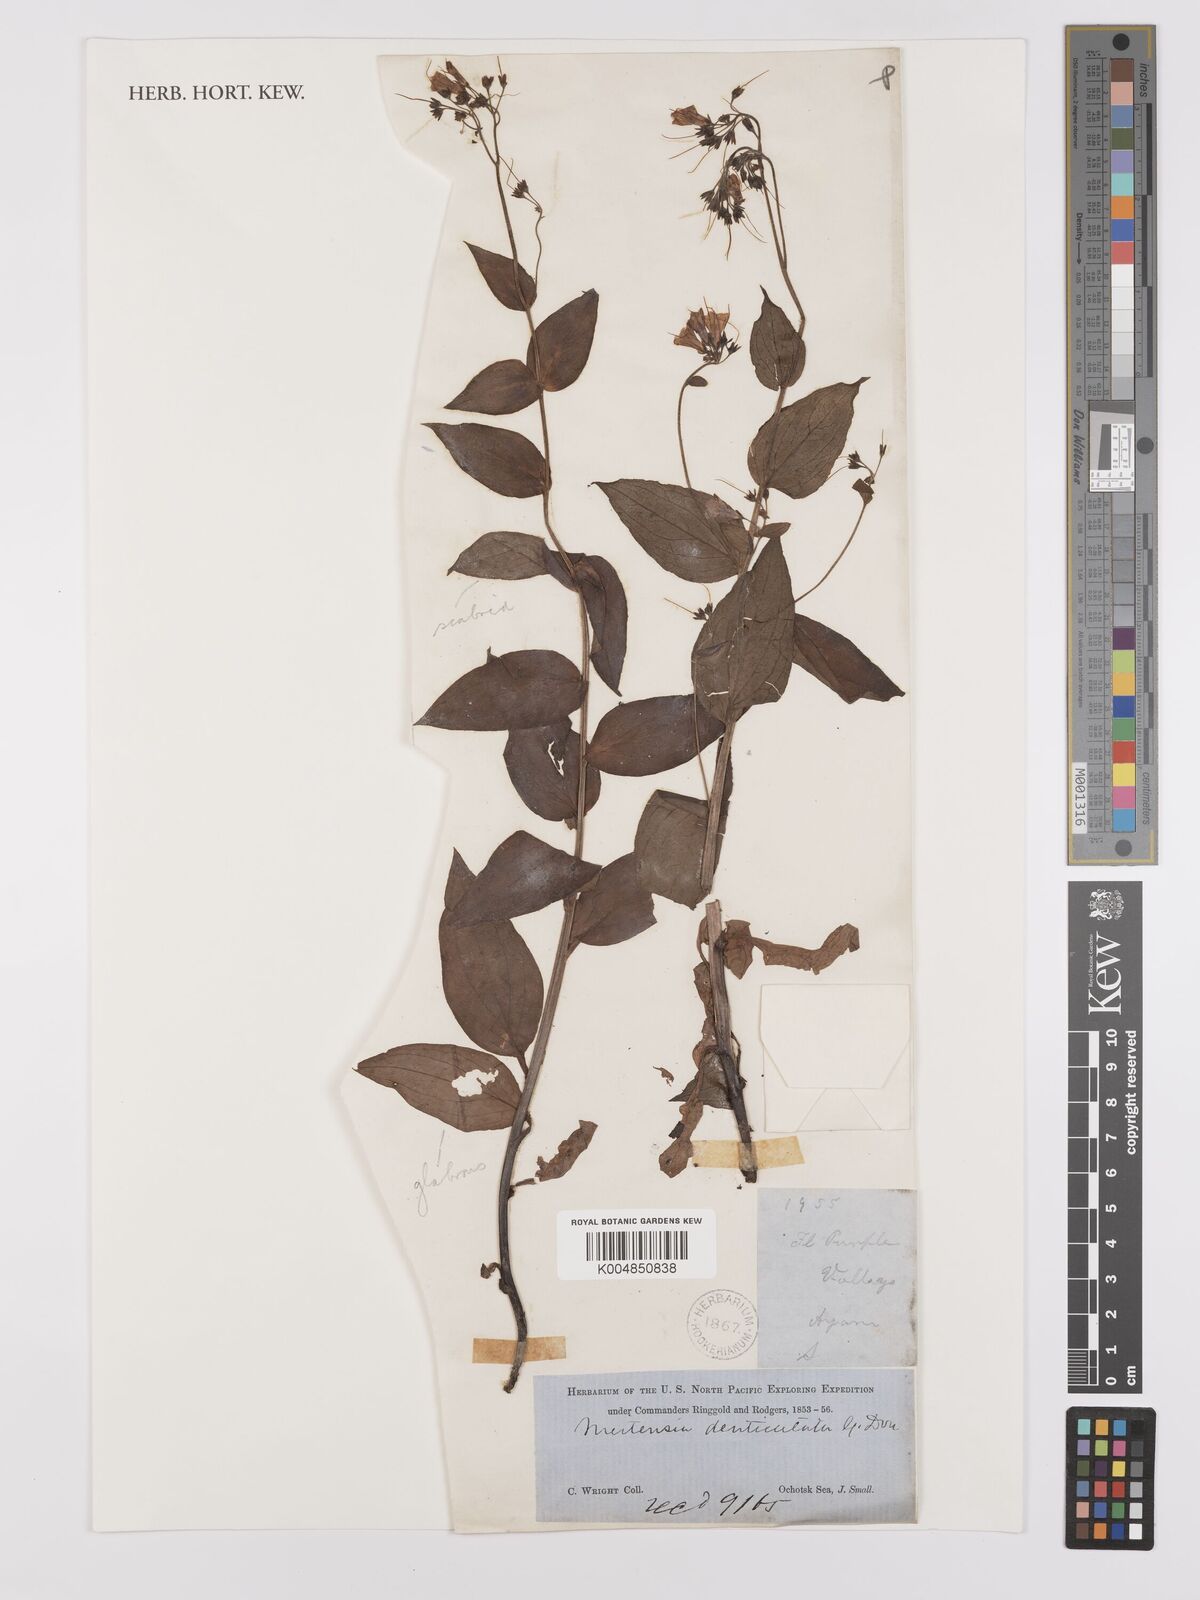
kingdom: Plantae
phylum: Tracheophyta
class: Magnoliopsida
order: Boraginales
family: Boraginaceae
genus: Mertensia
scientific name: Mertensia sibirica
